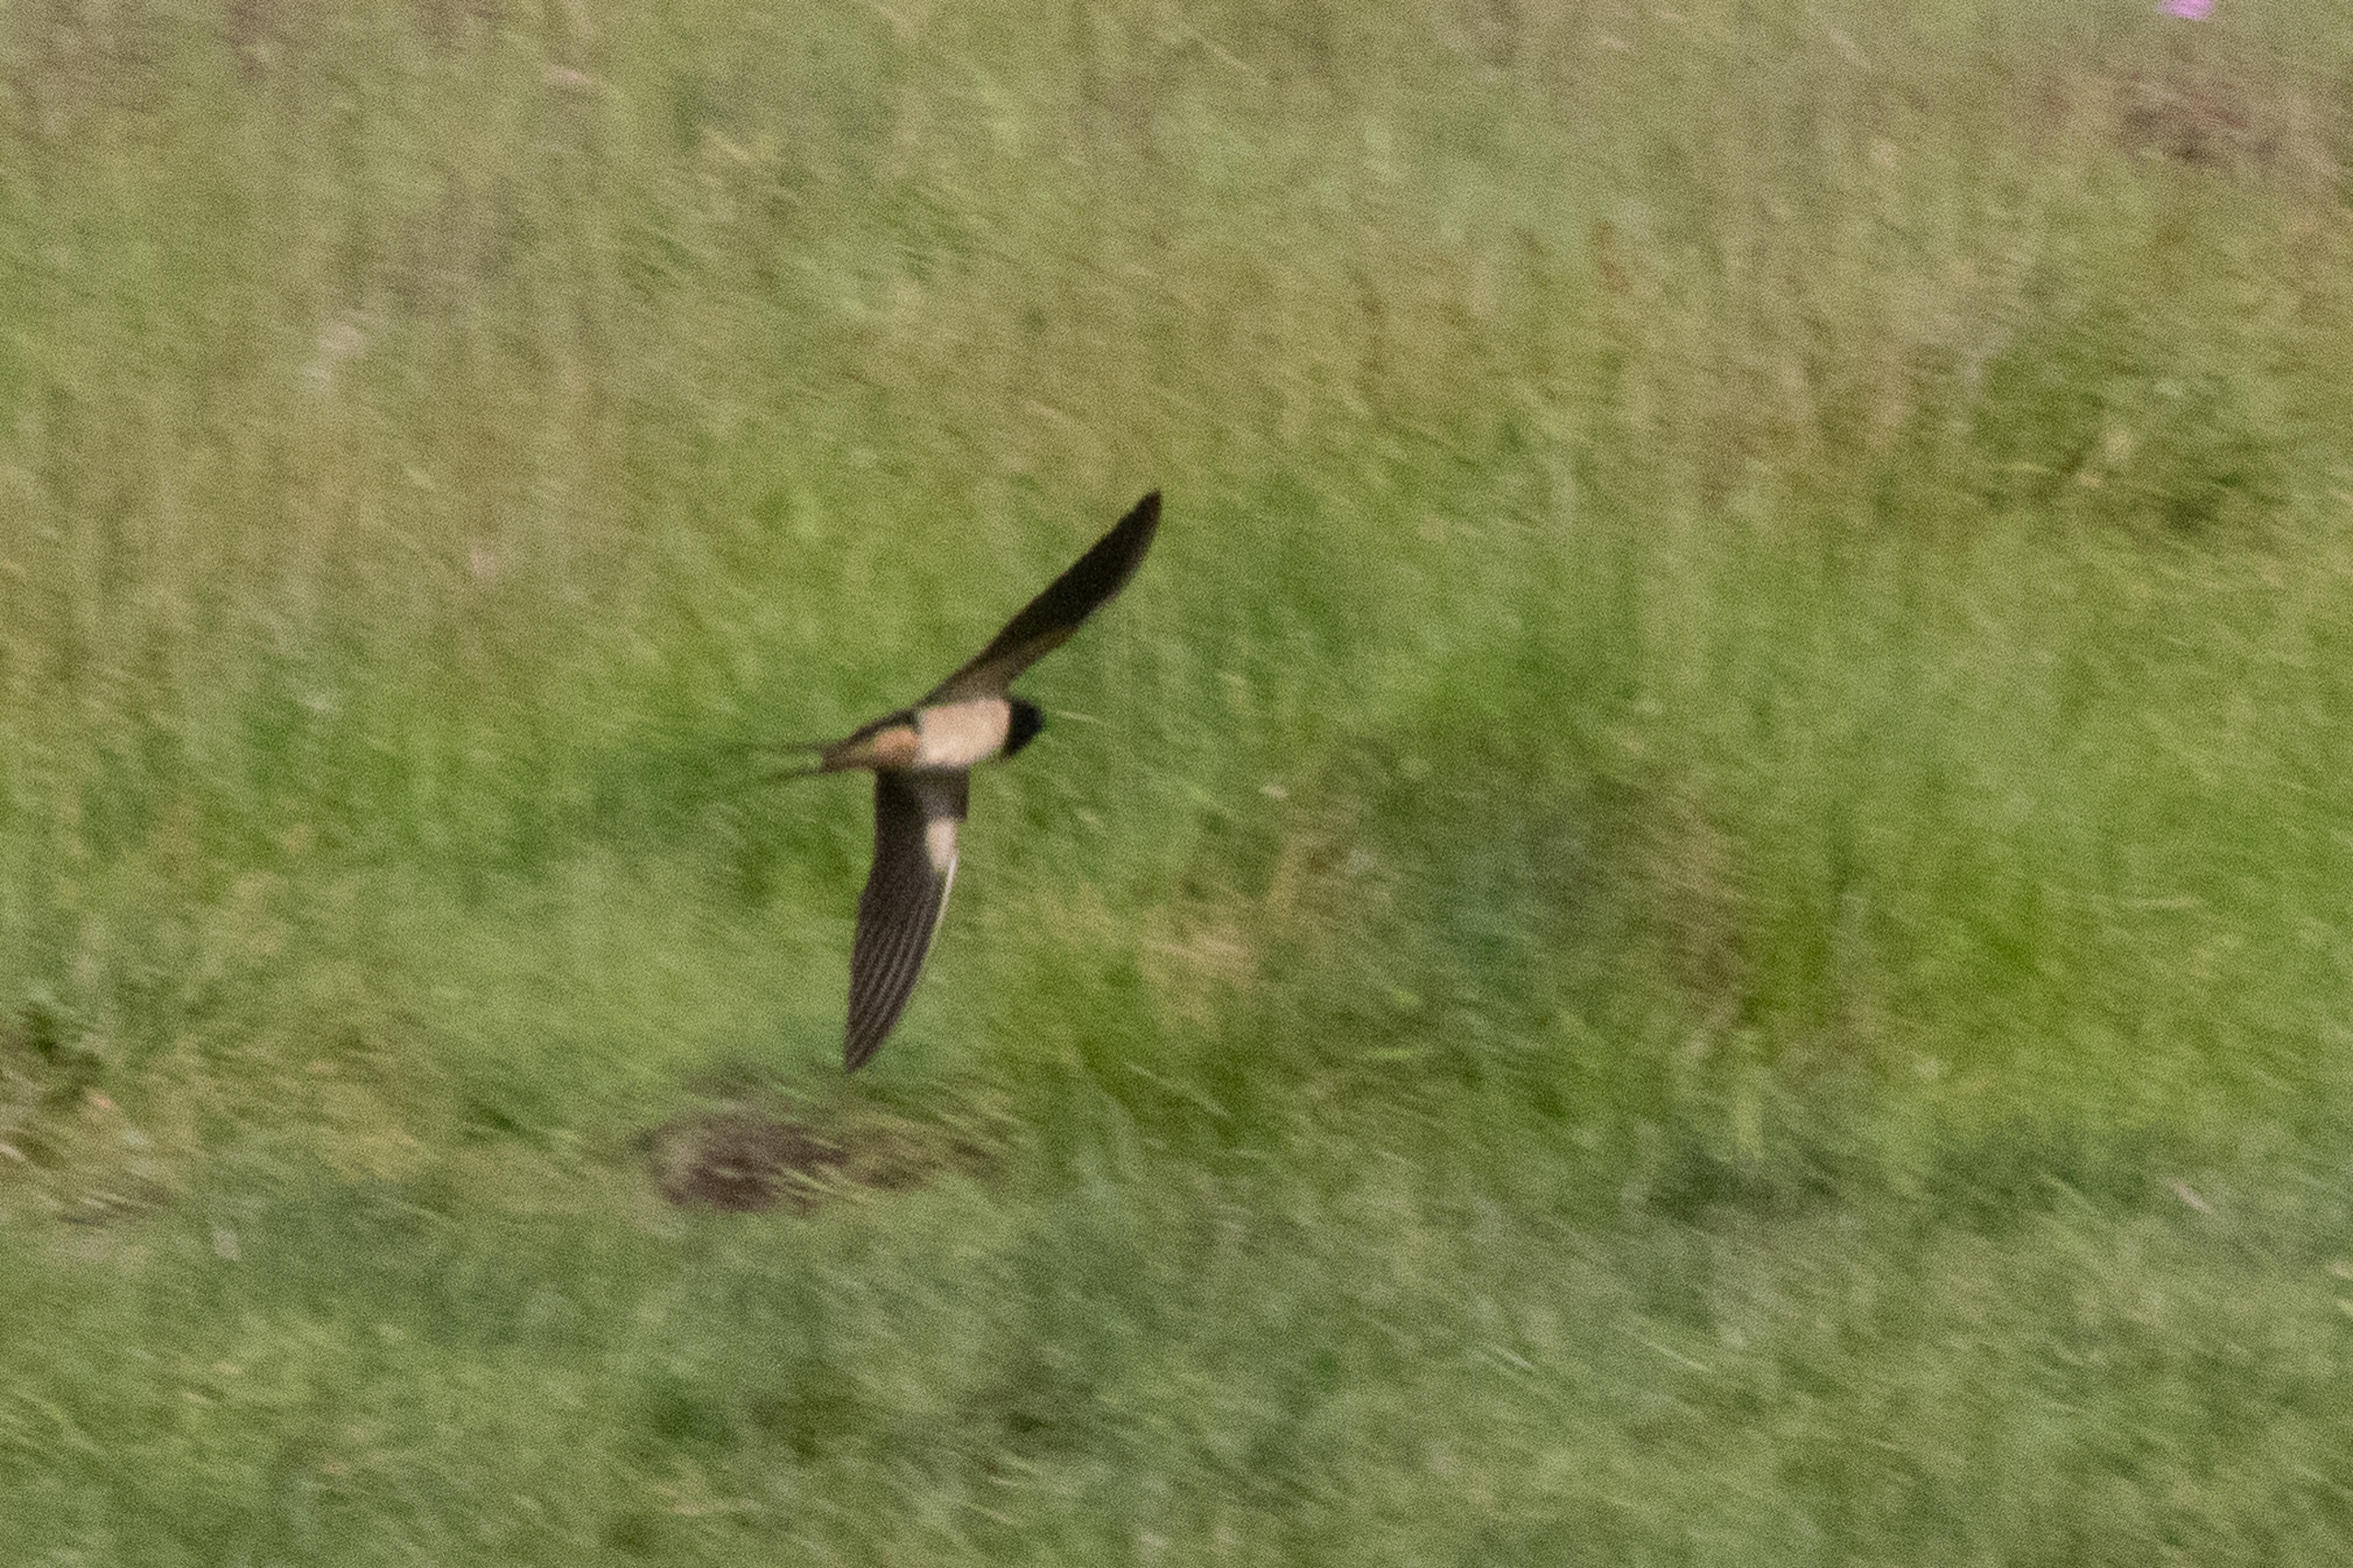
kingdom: Animalia
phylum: Chordata
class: Aves
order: Passeriformes
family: Hirundinidae
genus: Hirundo
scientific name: Hirundo rustica
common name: Landsvale
